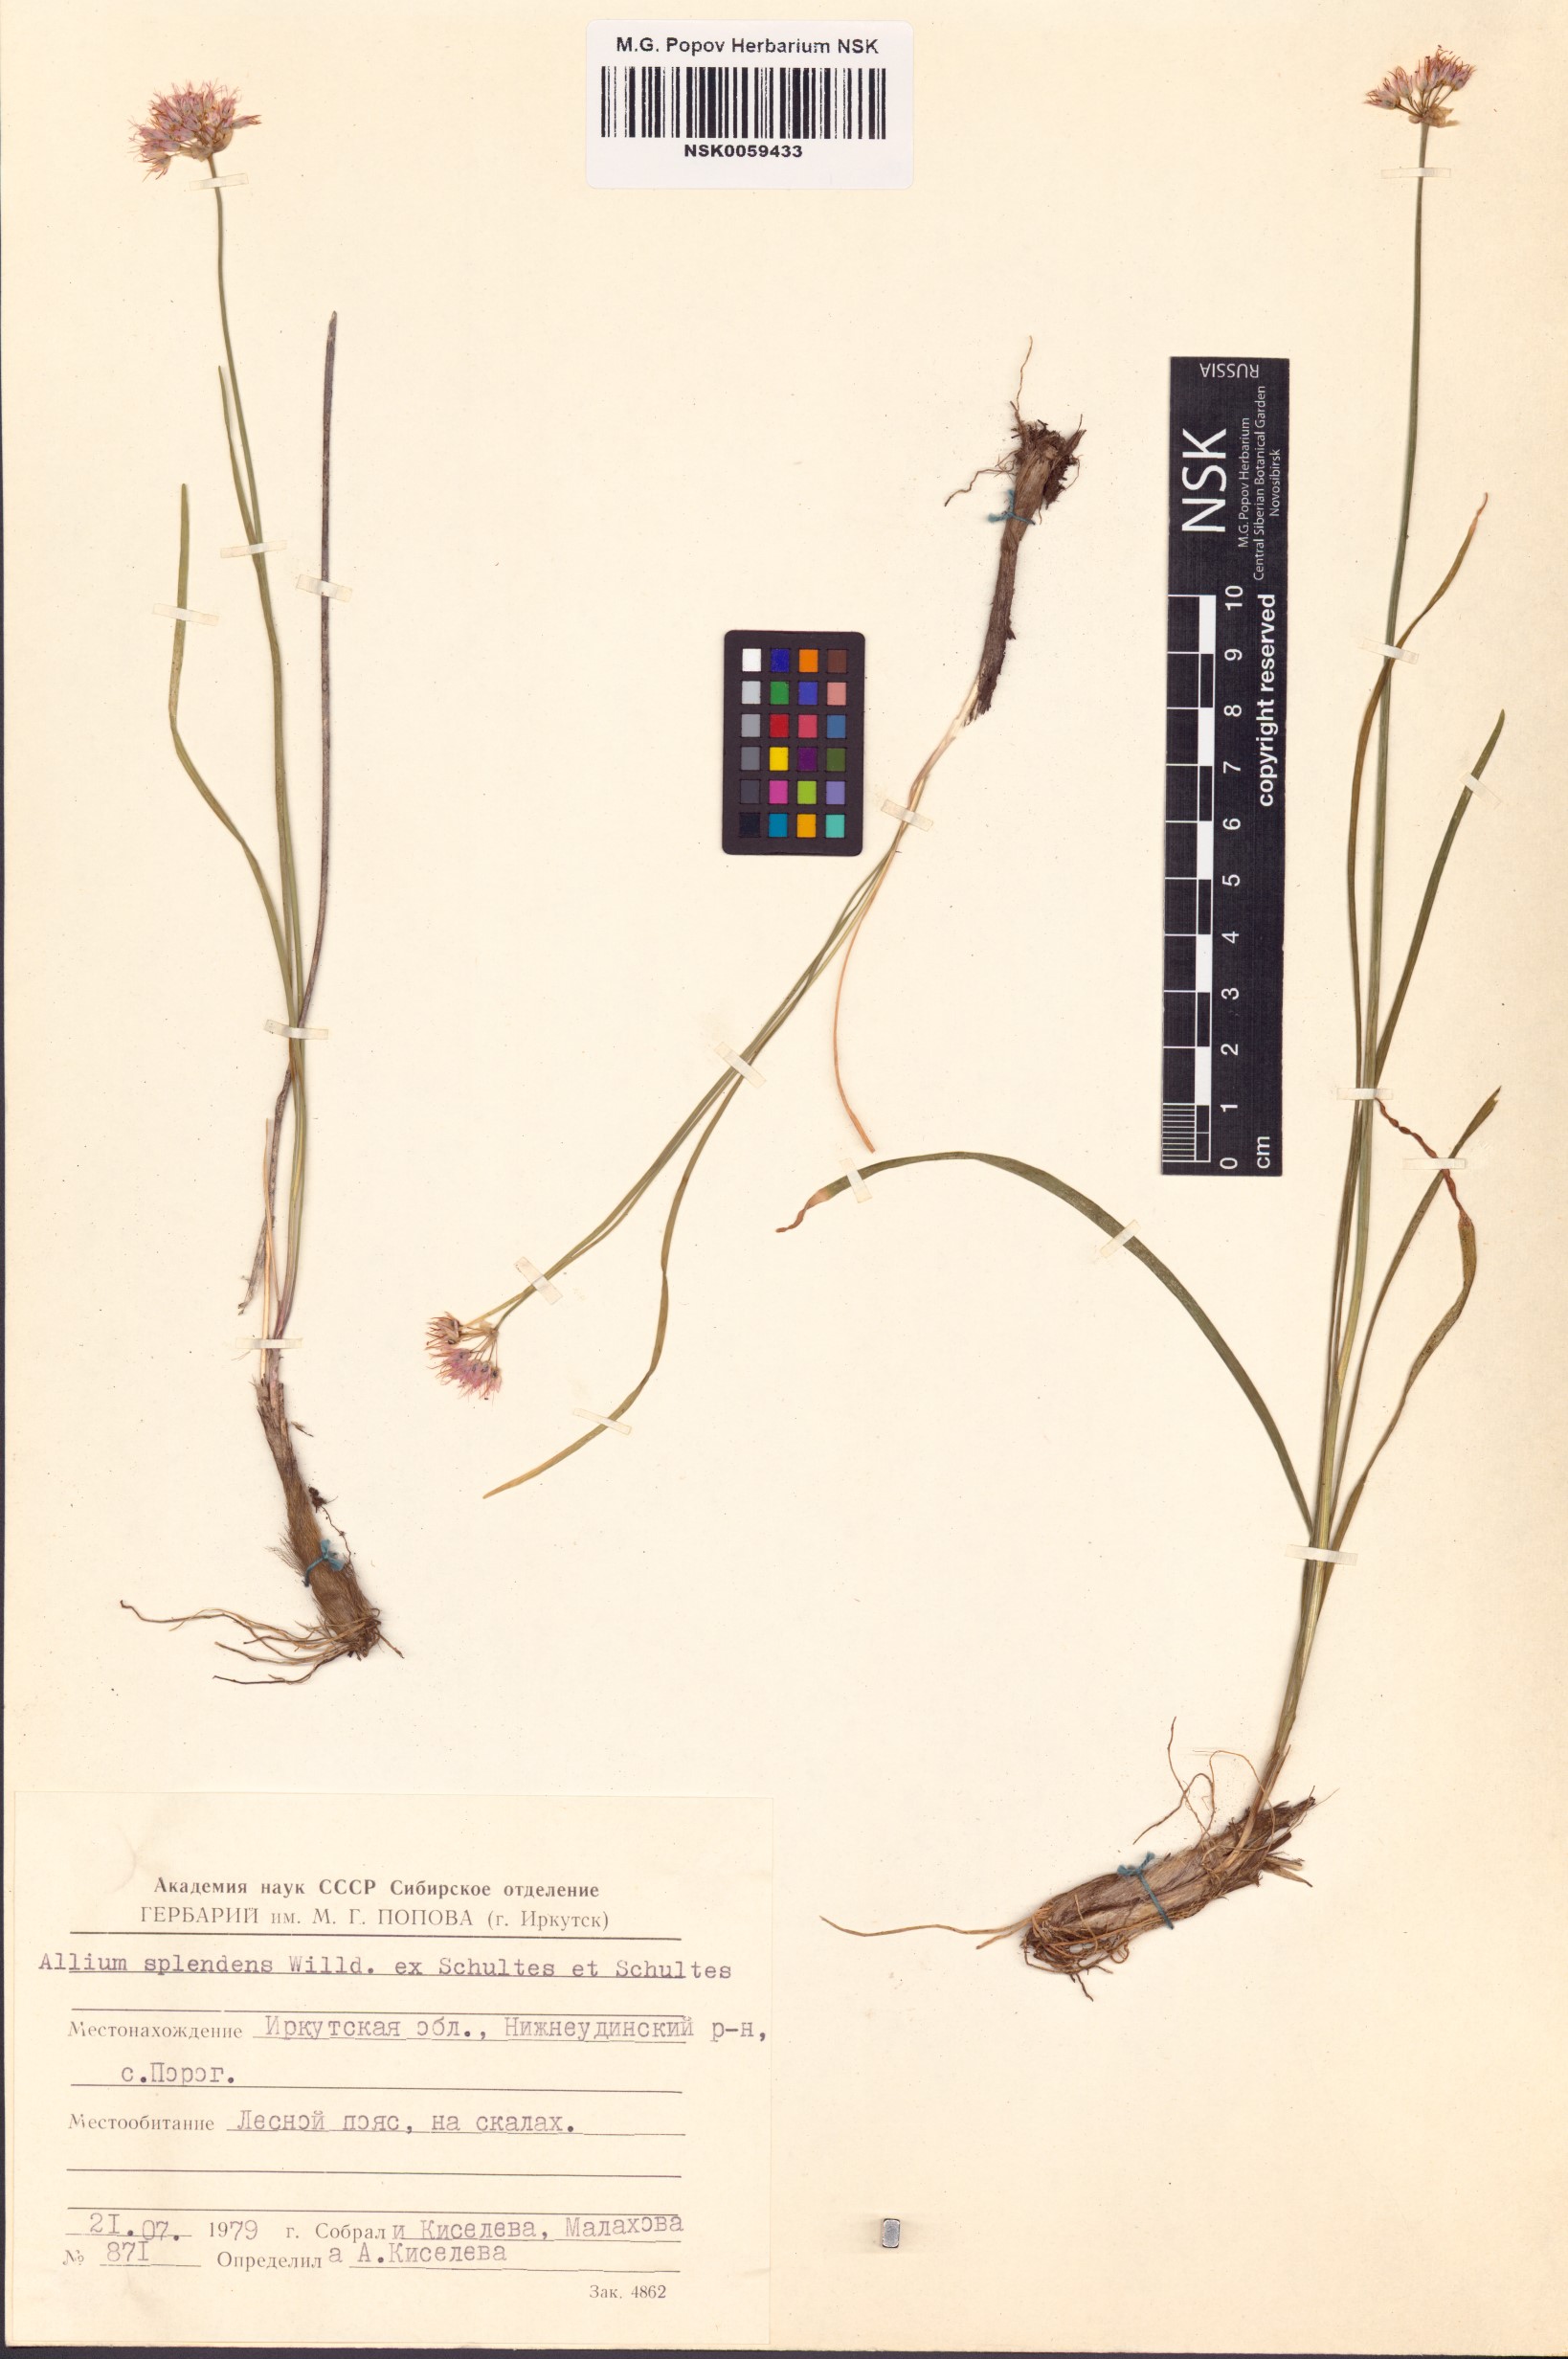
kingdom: Plantae
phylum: Tracheophyta
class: Liliopsida
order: Asparagales
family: Amaryllidaceae
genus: Allium
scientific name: Allium splendens
